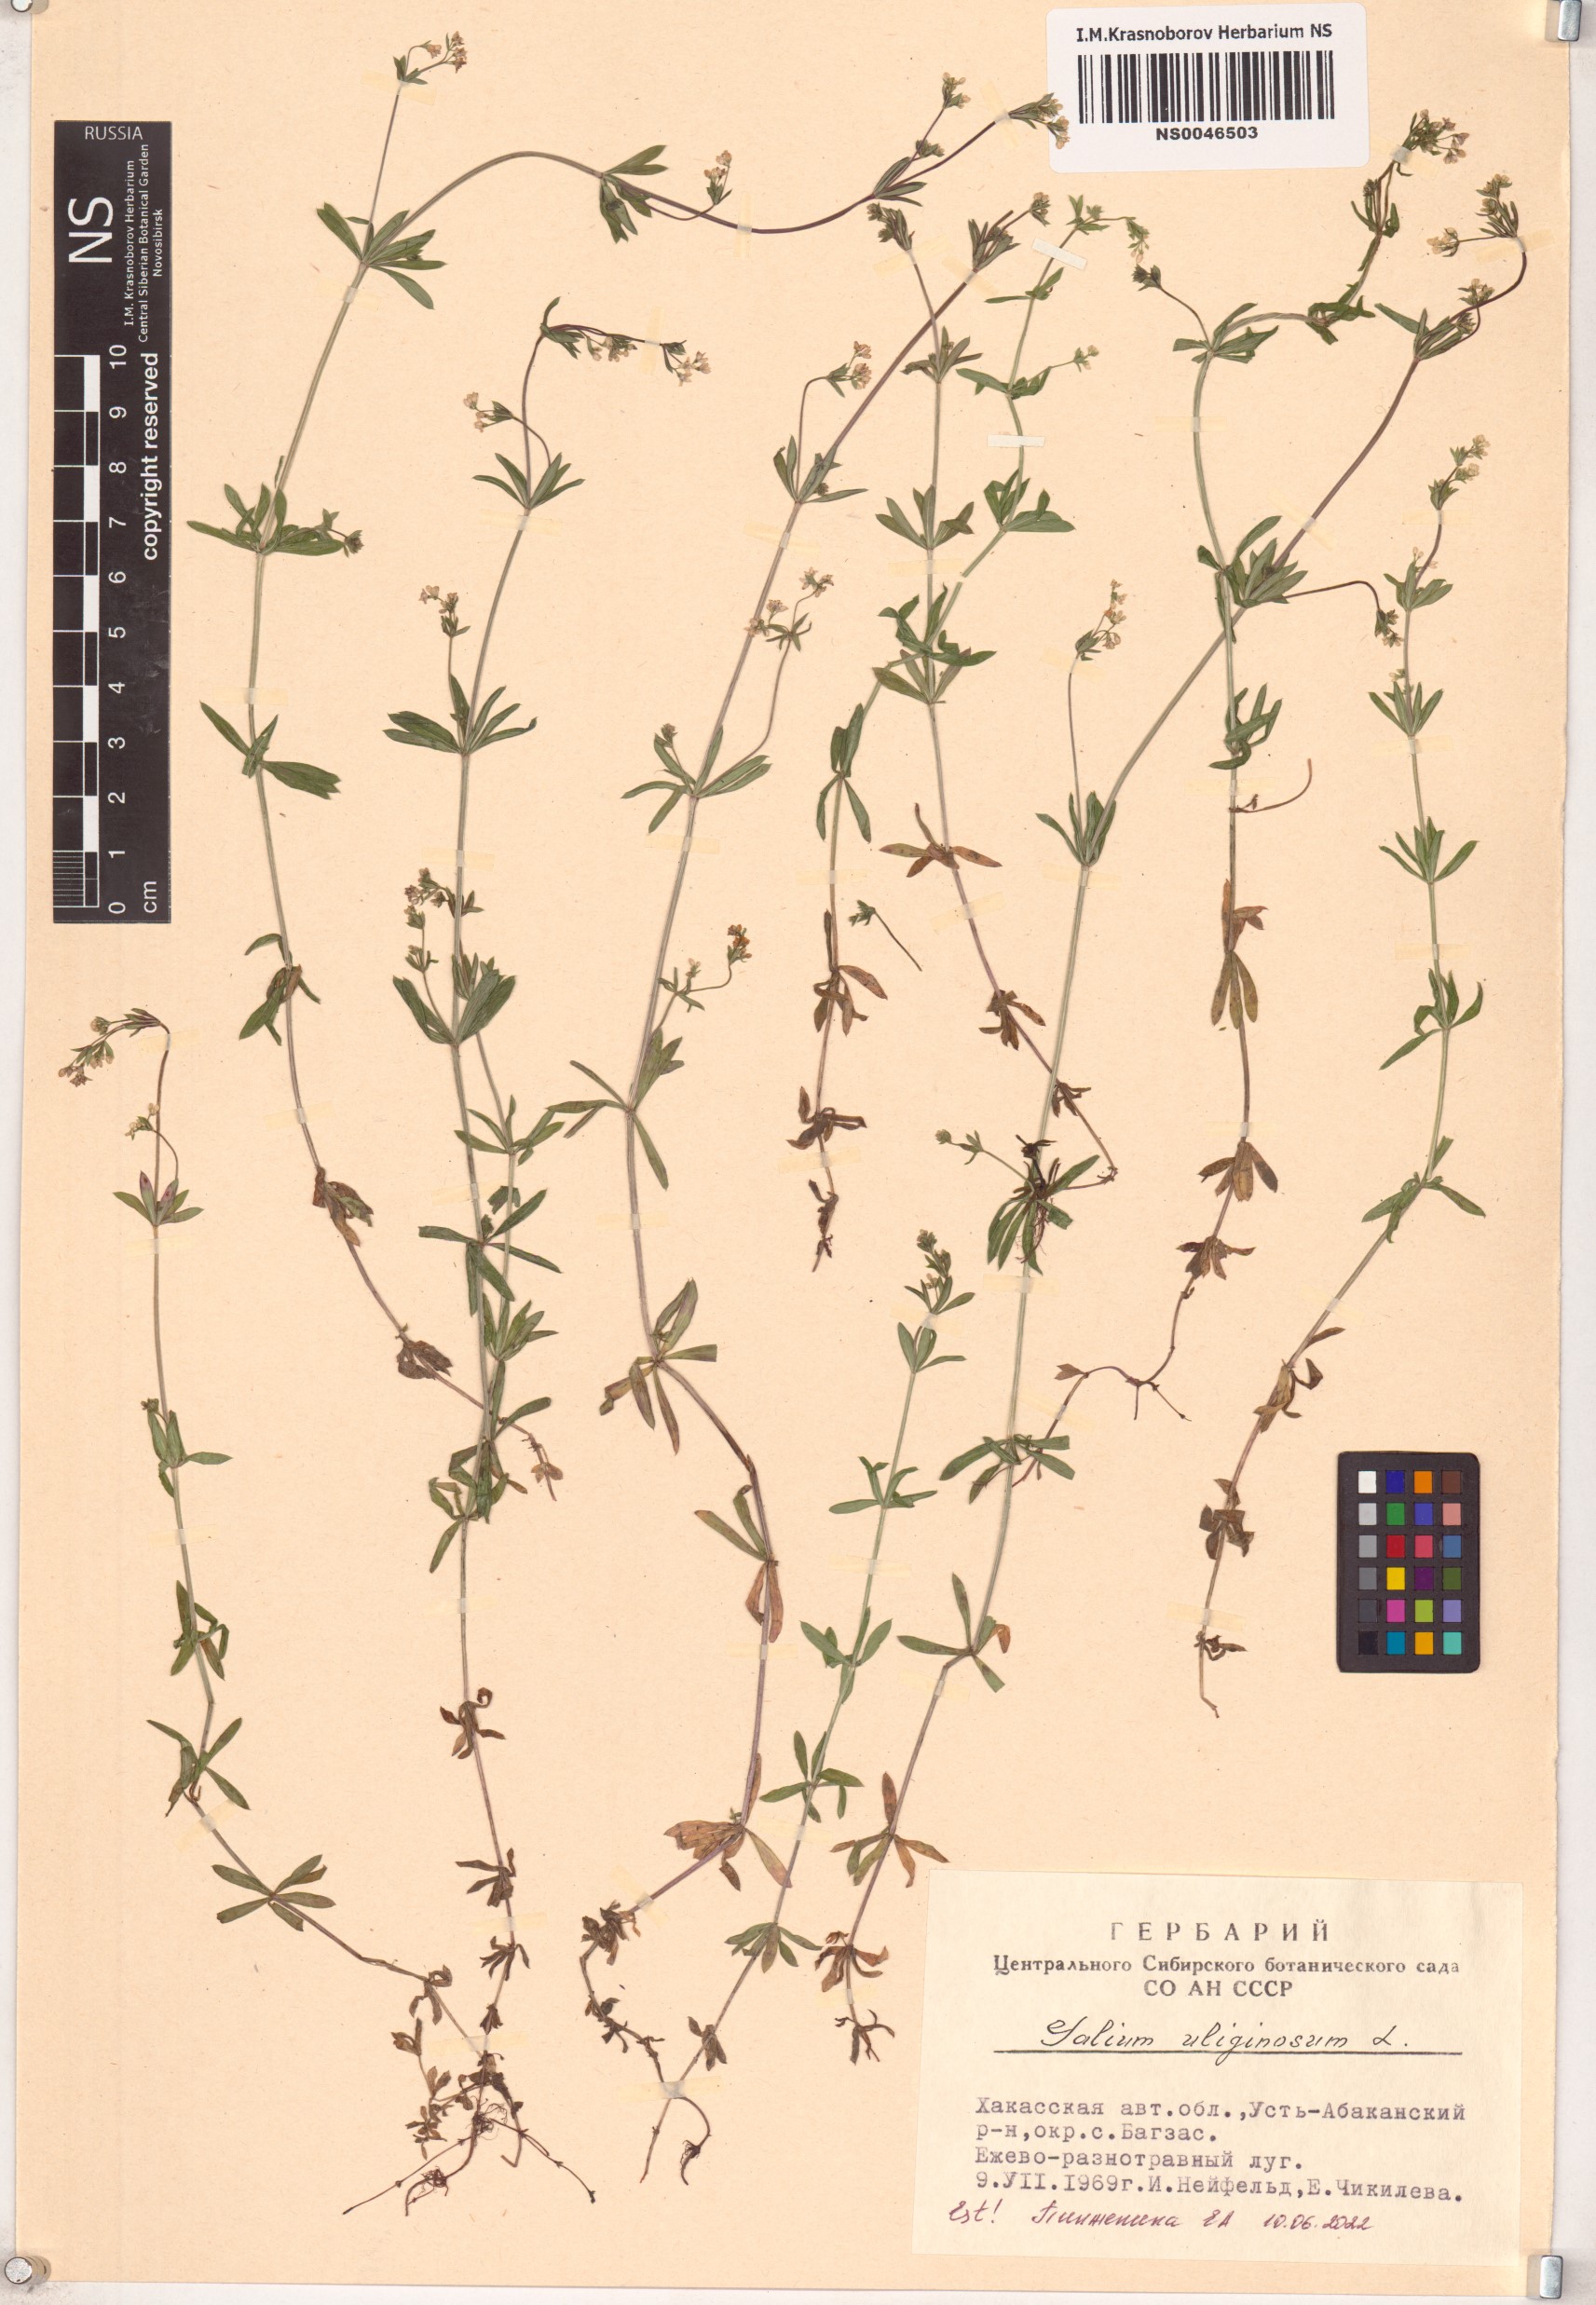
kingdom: Plantae
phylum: Tracheophyta
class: Magnoliopsida
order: Gentianales
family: Rubiaceae
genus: Galium
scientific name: Galium uliginosum
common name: Fen bedstraw
